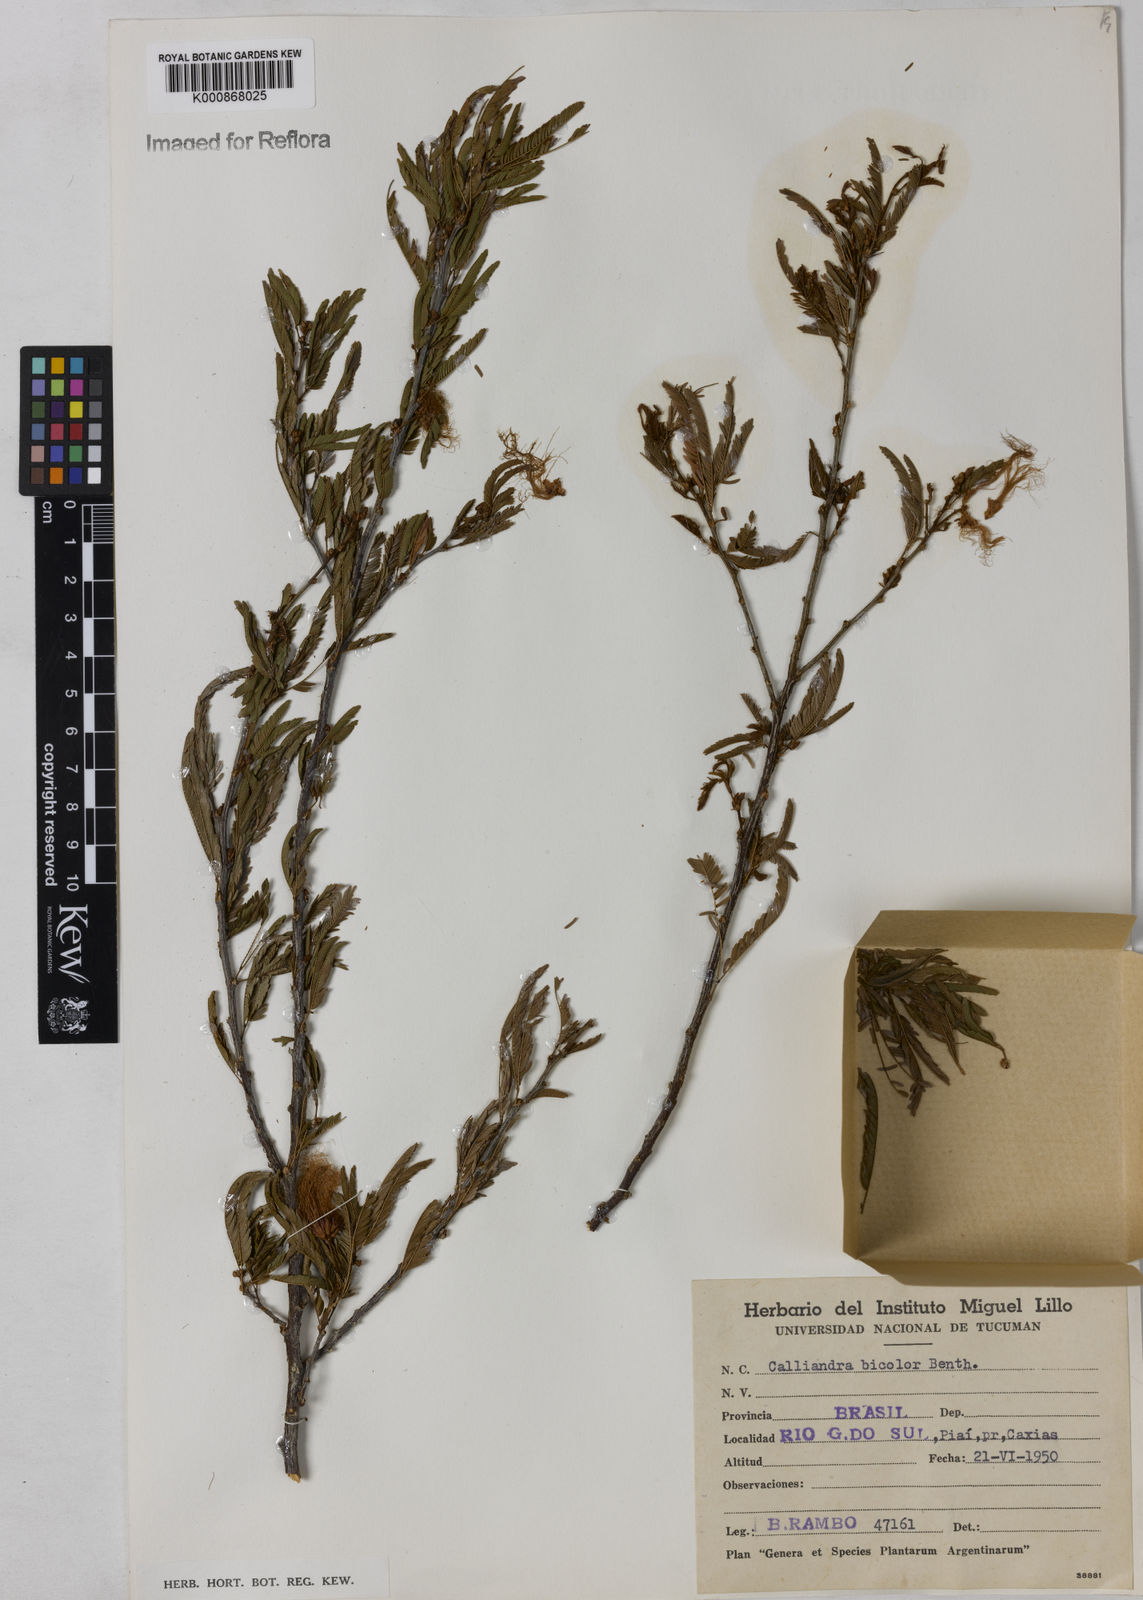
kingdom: Plantae
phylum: Tracheophyta
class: Magnoliopsida
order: Fabales
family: Fabaceae
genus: Calliandra
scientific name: Calliandra tweediei
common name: Mexican flamebush
